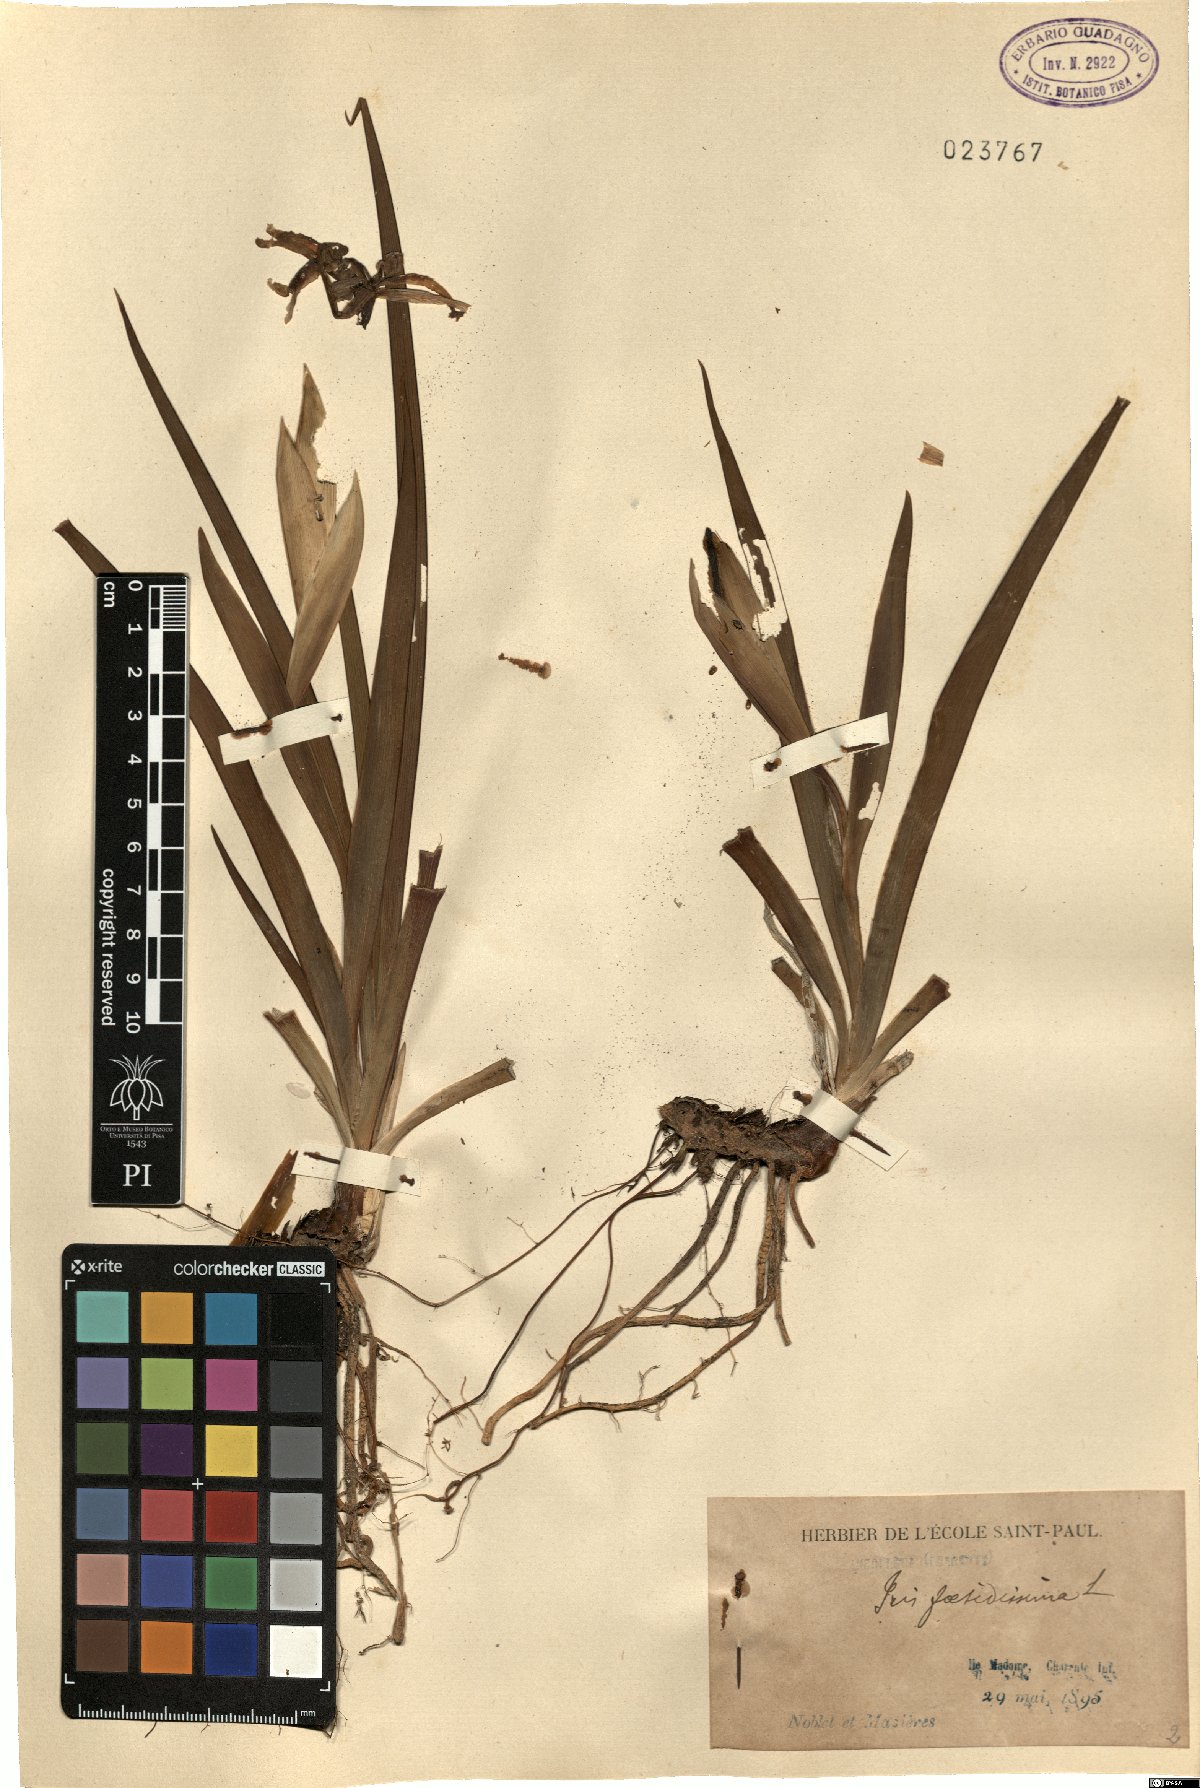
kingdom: Plantae
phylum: Tracheophyta
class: Liliopsida
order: Asparagales
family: Iridaceae
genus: Iris
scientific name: Iris foetidissima
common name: Stinking iris
